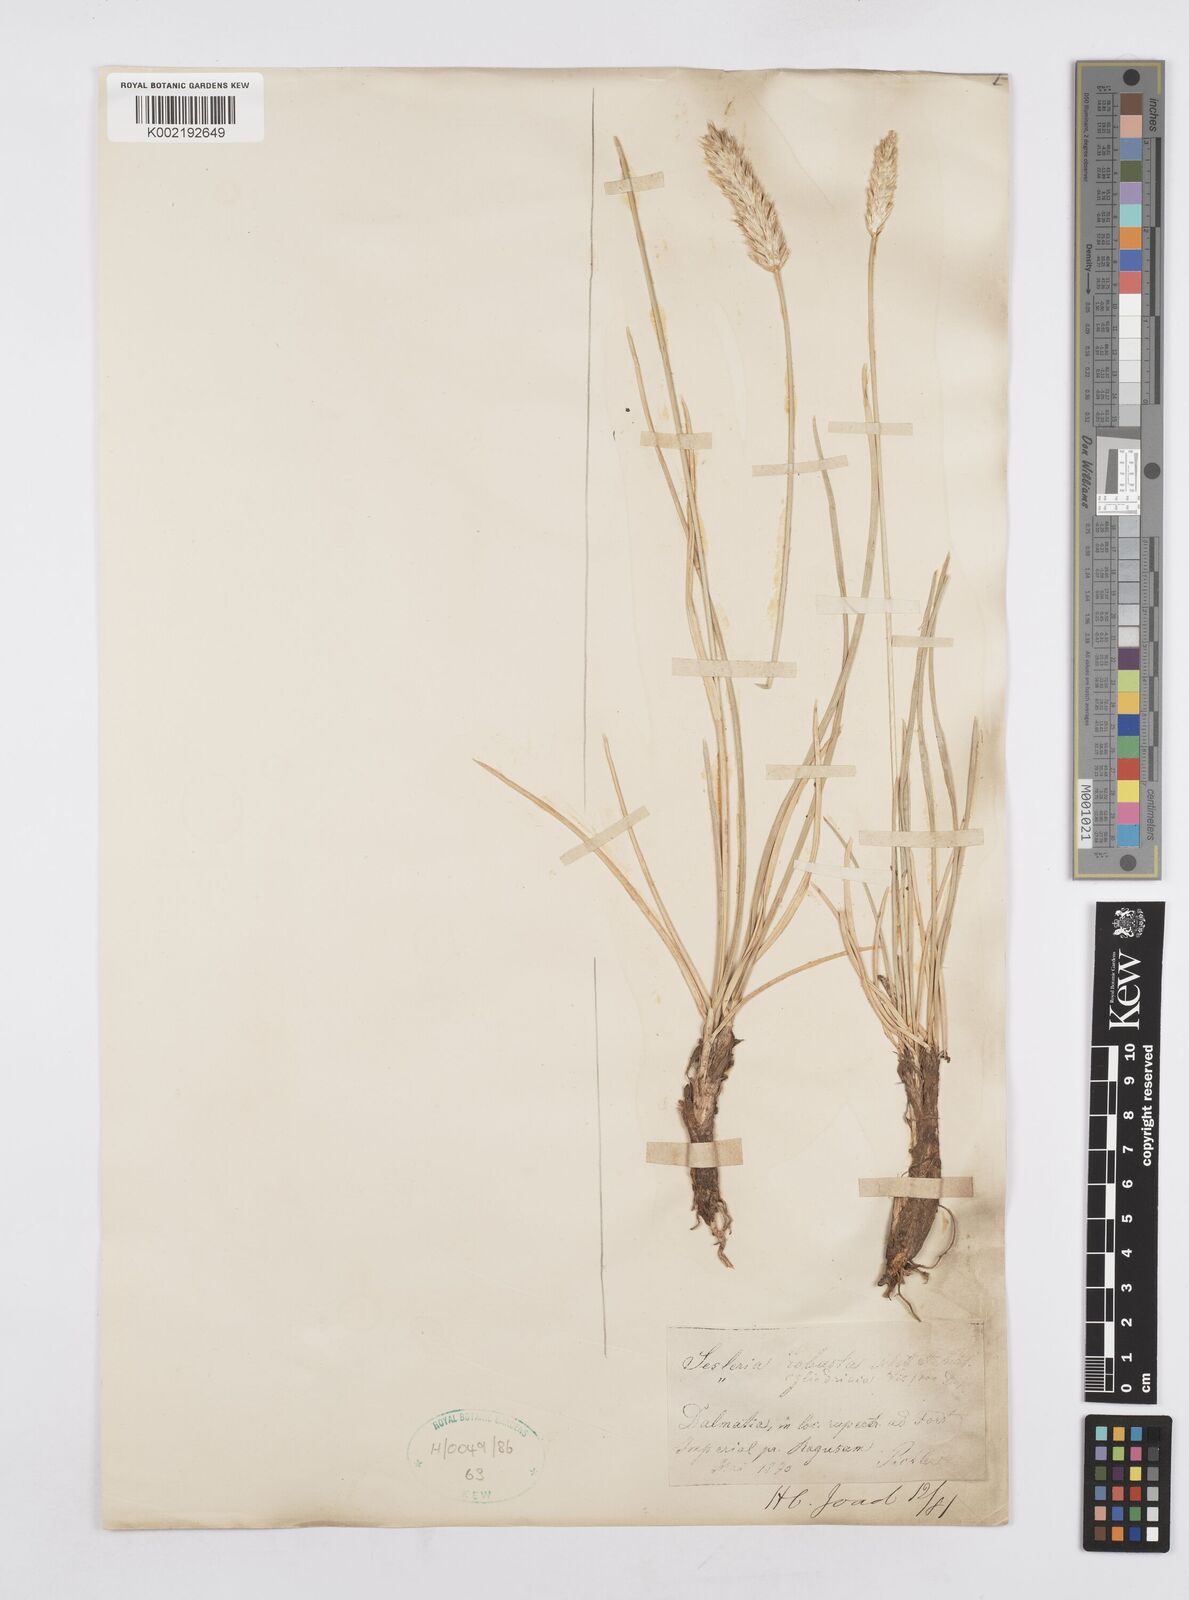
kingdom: Plantae
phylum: Tracheophyta
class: Liliopsida
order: Poales
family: Poaceae
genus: Sesleria
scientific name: Sesleria robusta
